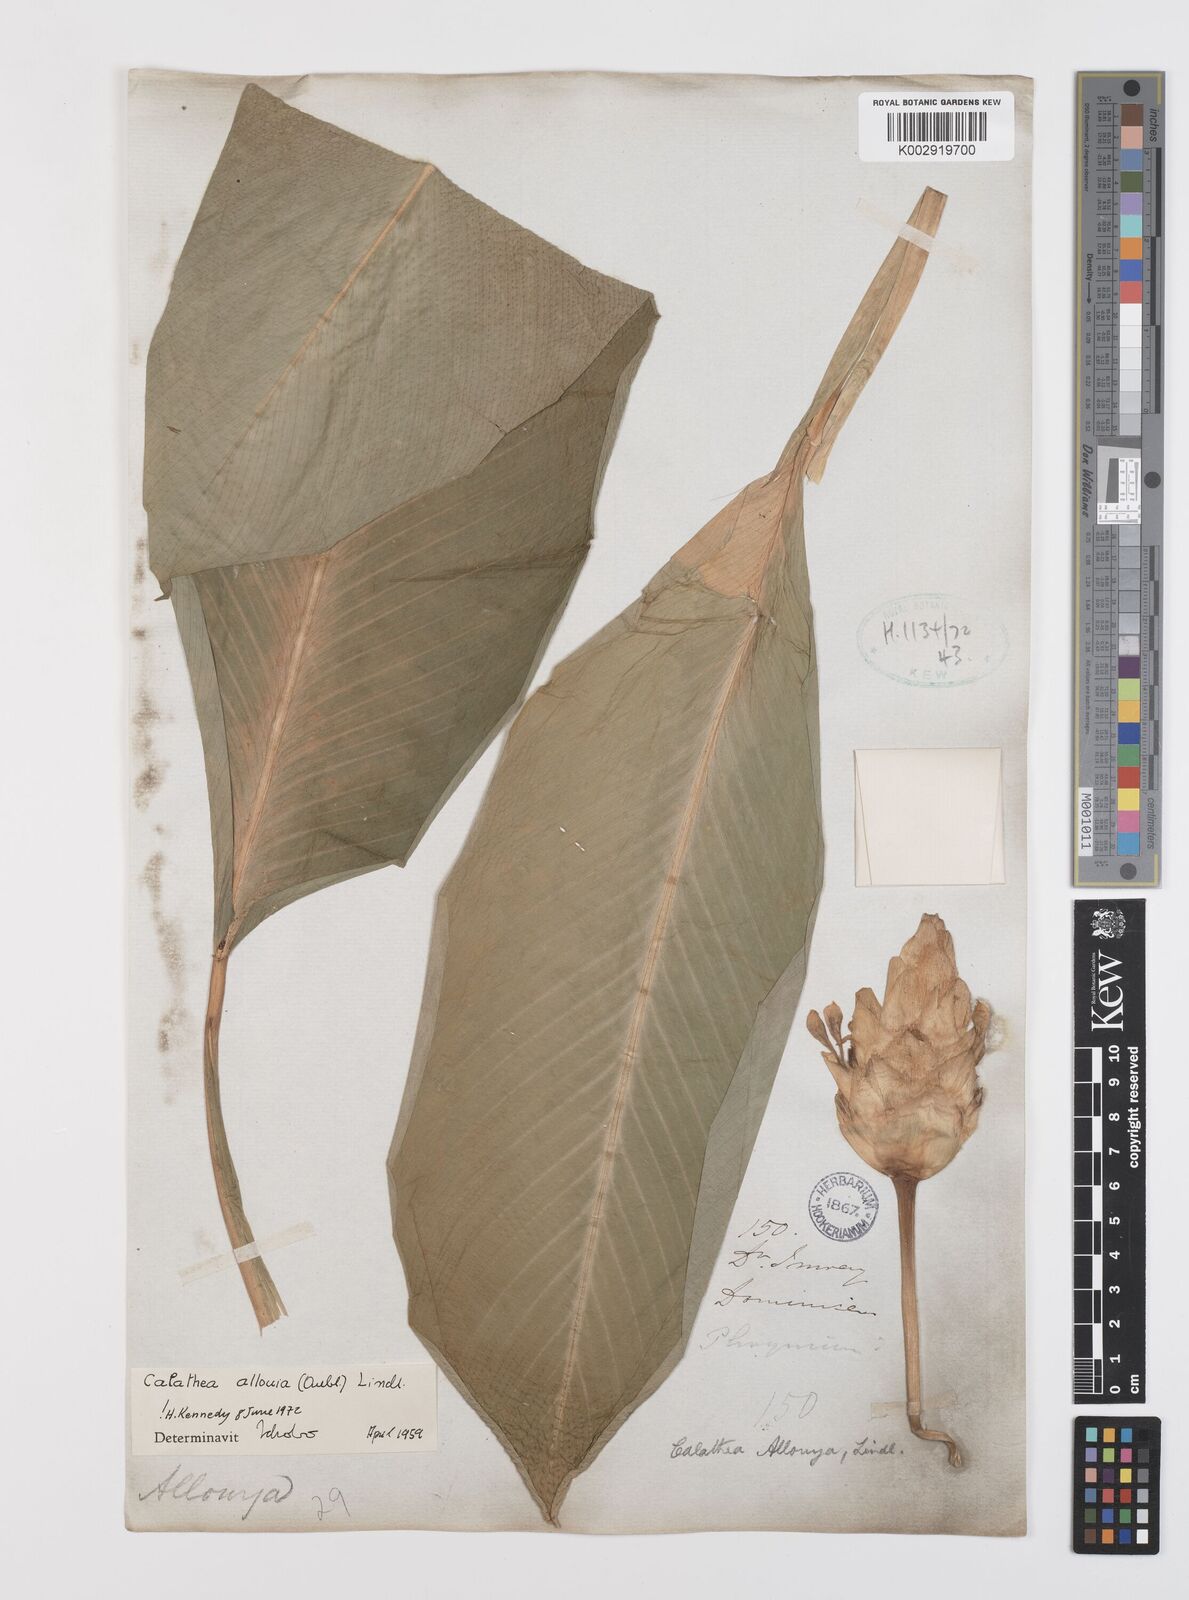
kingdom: Plantae
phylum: Tracheophyta
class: Liliopsida
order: Zingiberales
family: Marantaceae
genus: Goeppertia
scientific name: Goeppertia allouia
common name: Sweet corn-tuber
